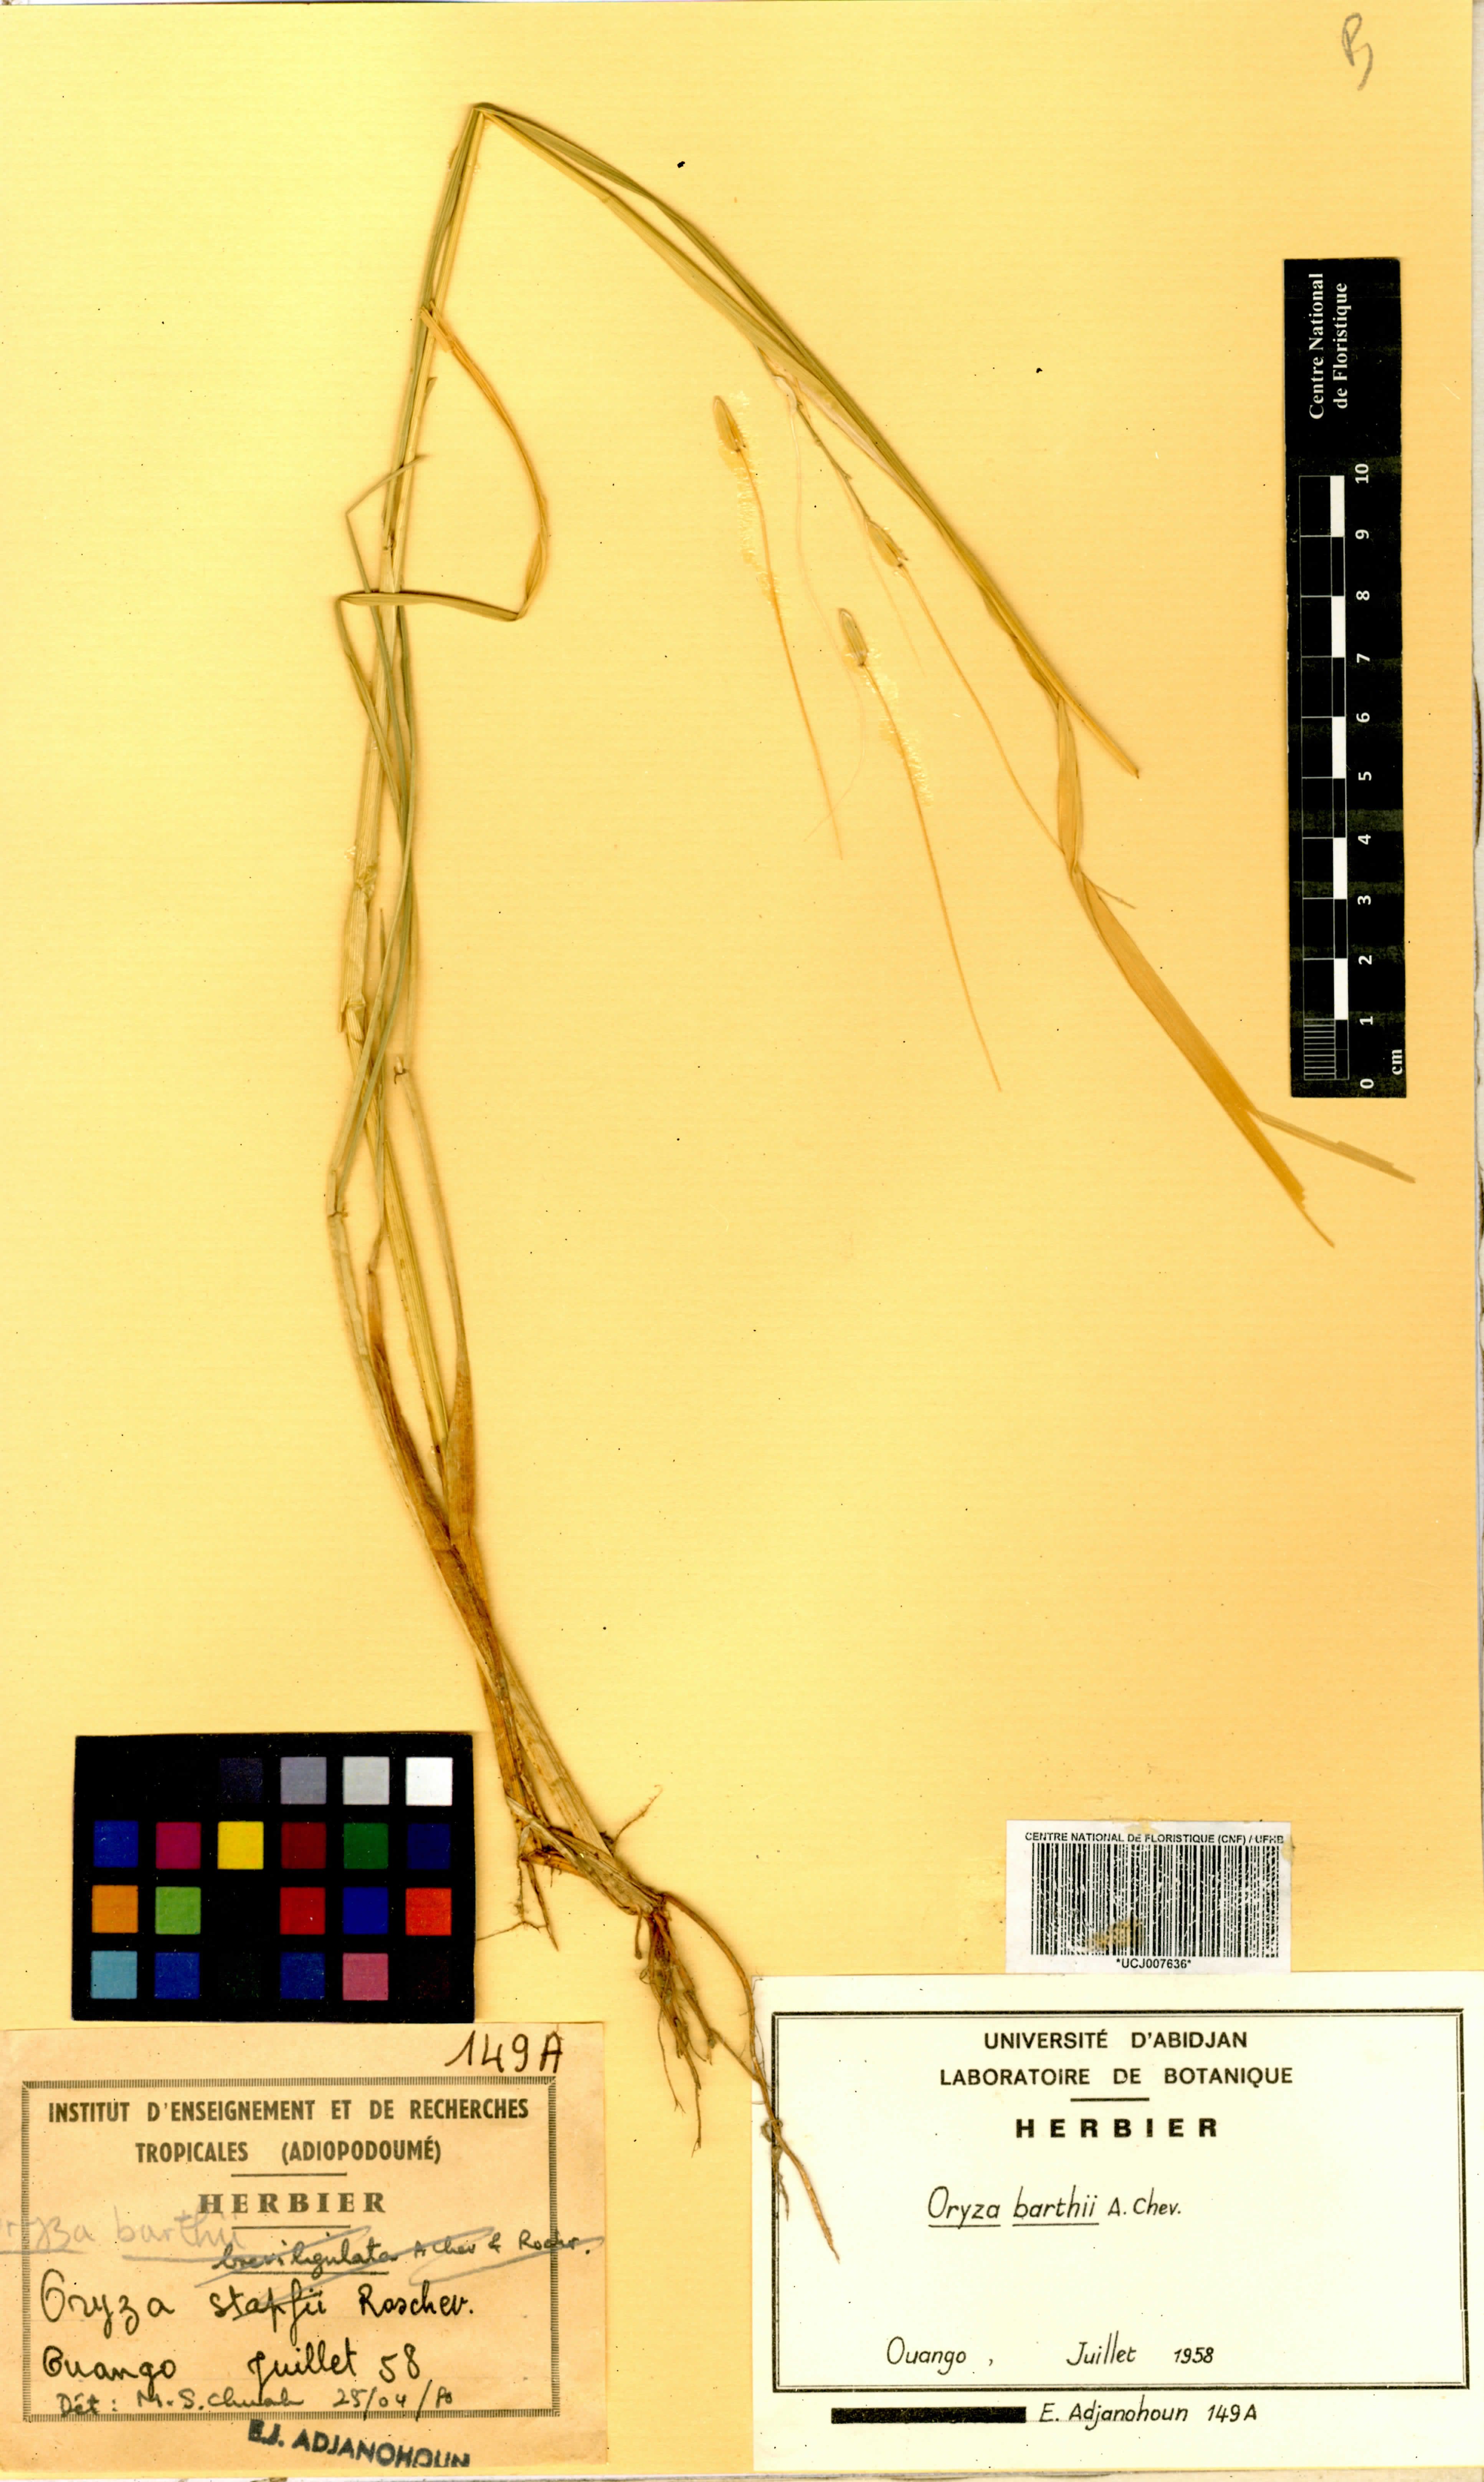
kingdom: Plantae
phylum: Tracheophyta
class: Liliopsida
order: Poales
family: Poaceae
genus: Oryza
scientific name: Oryza barthii
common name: Wild rice
